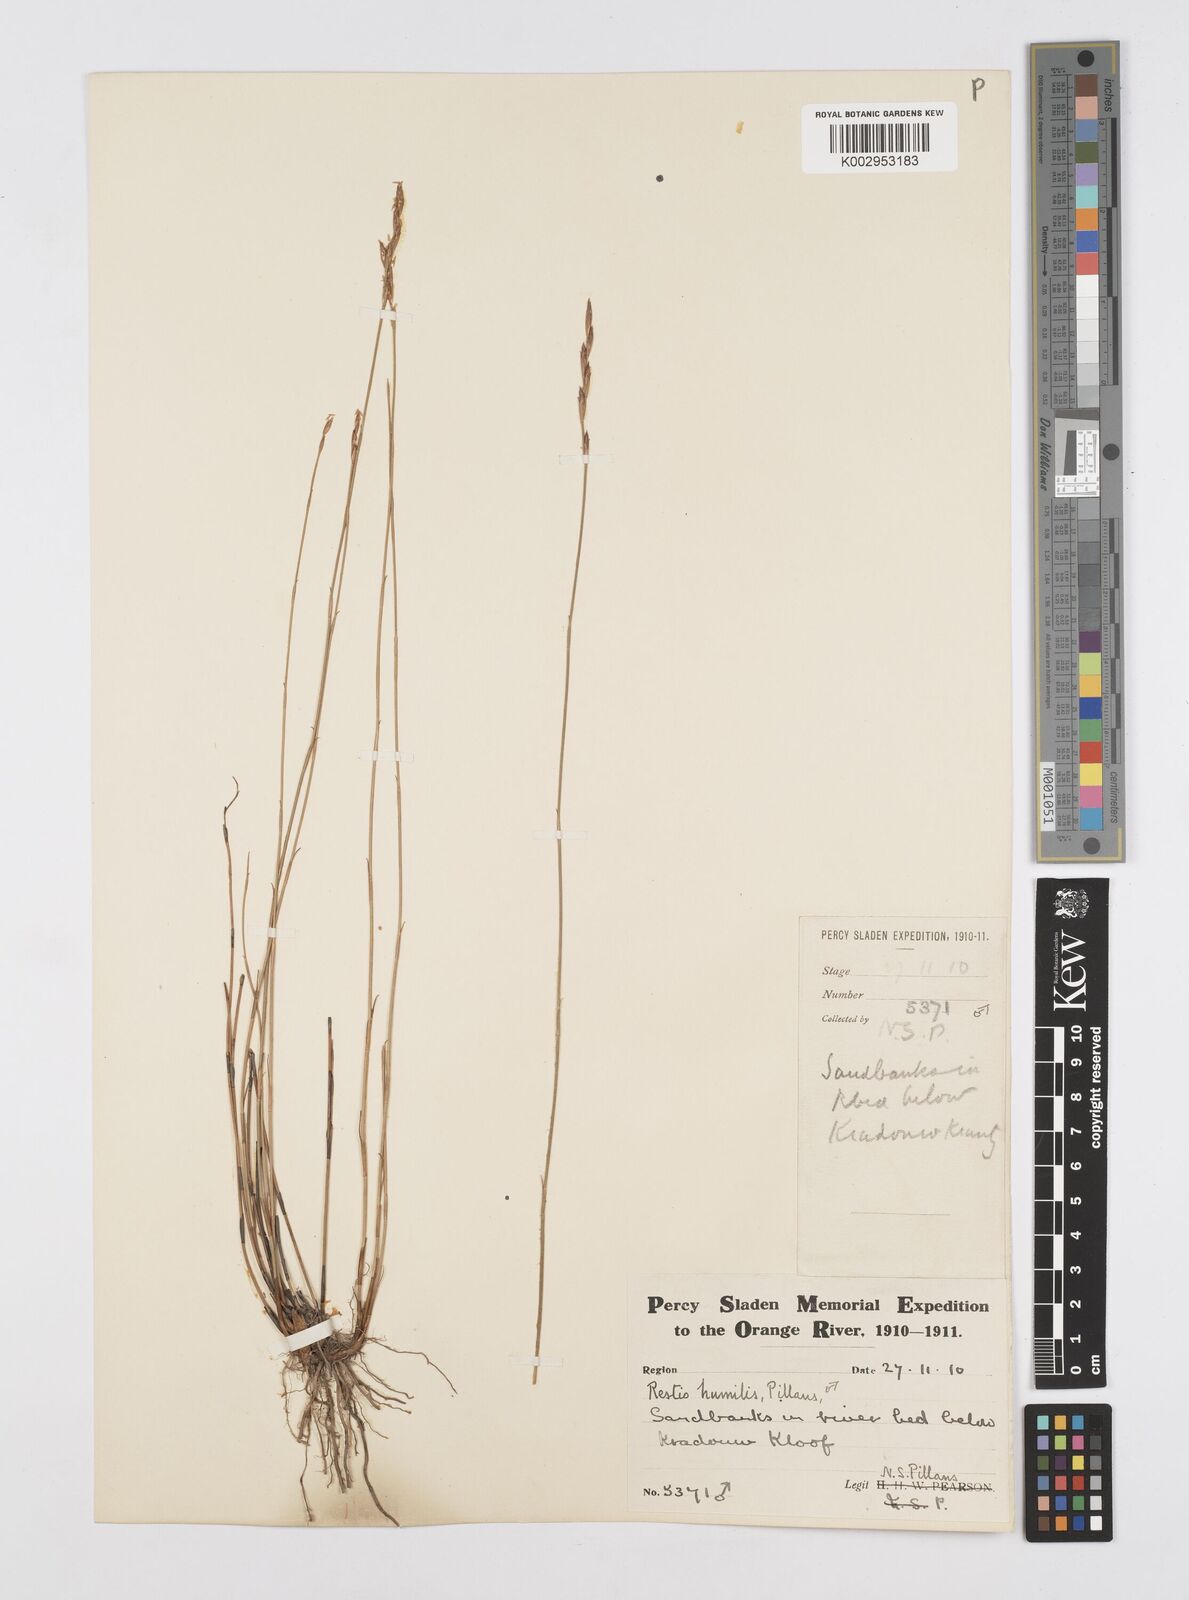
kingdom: Plantae
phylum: Tracheophyta
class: Liliopsida
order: Poales
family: Restionaceae
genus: Restio
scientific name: Restio wallichii
